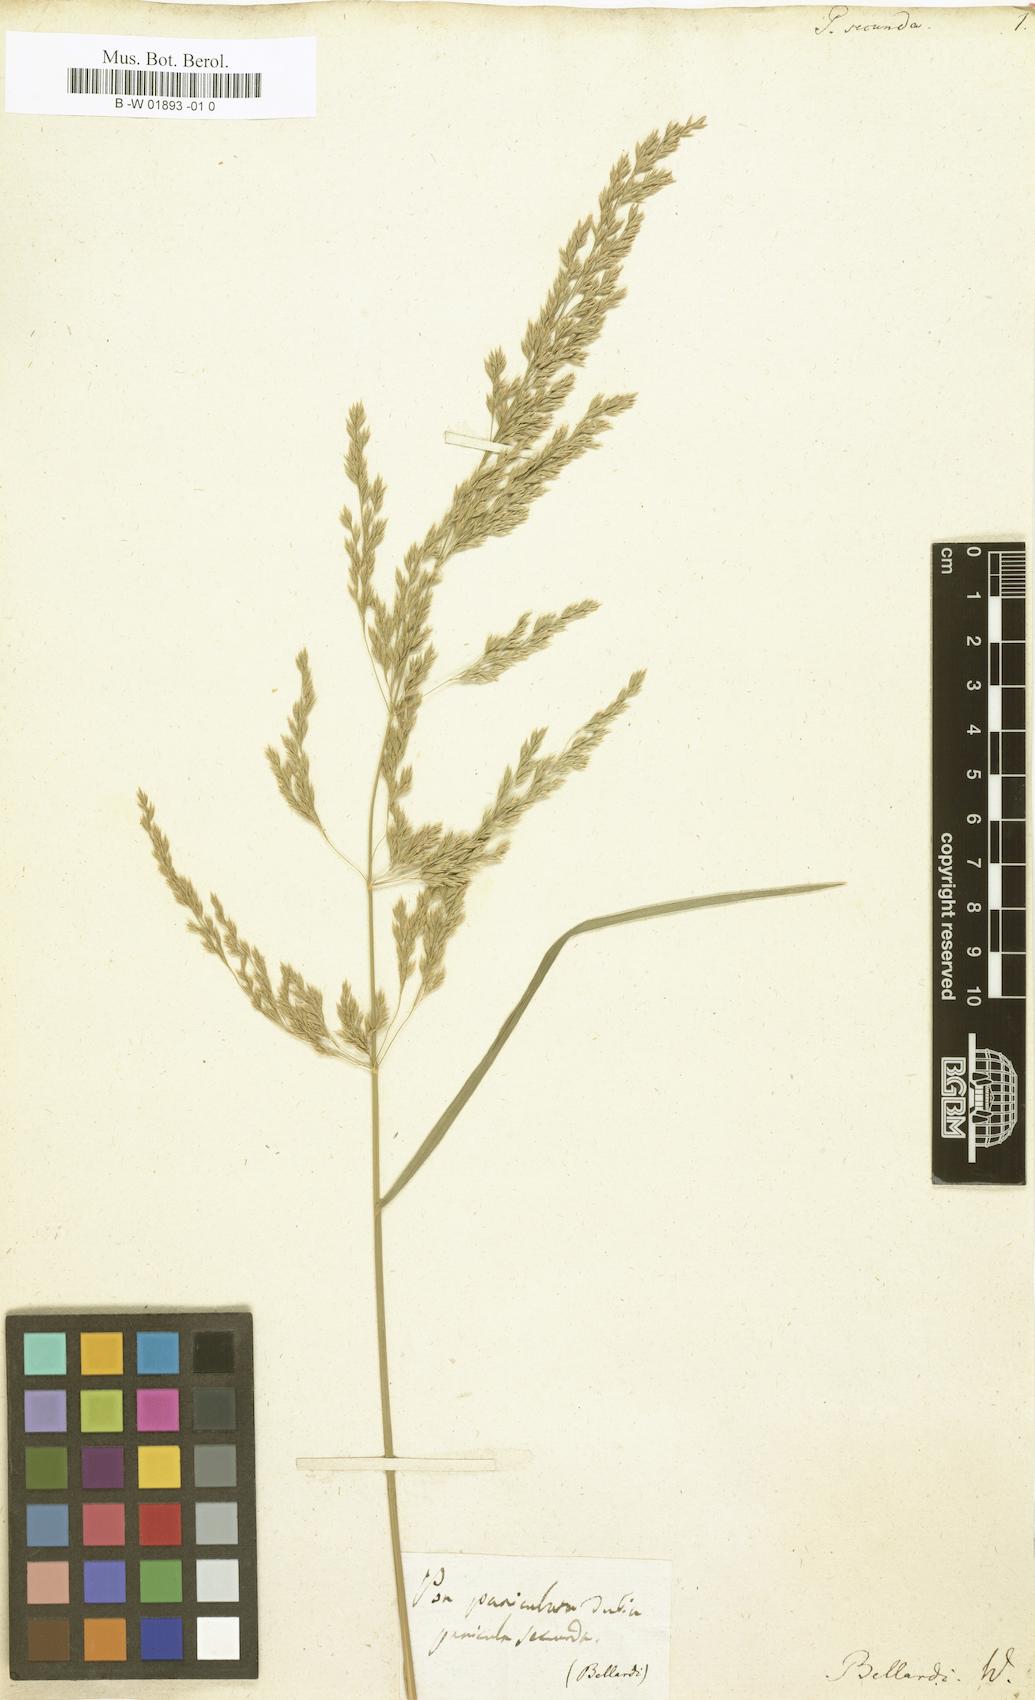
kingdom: Plantae
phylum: Tracheophyta
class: Liliopsida
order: Poales
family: Poaceae
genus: Poa
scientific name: Poa secunda
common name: Sandberg bluegrass
